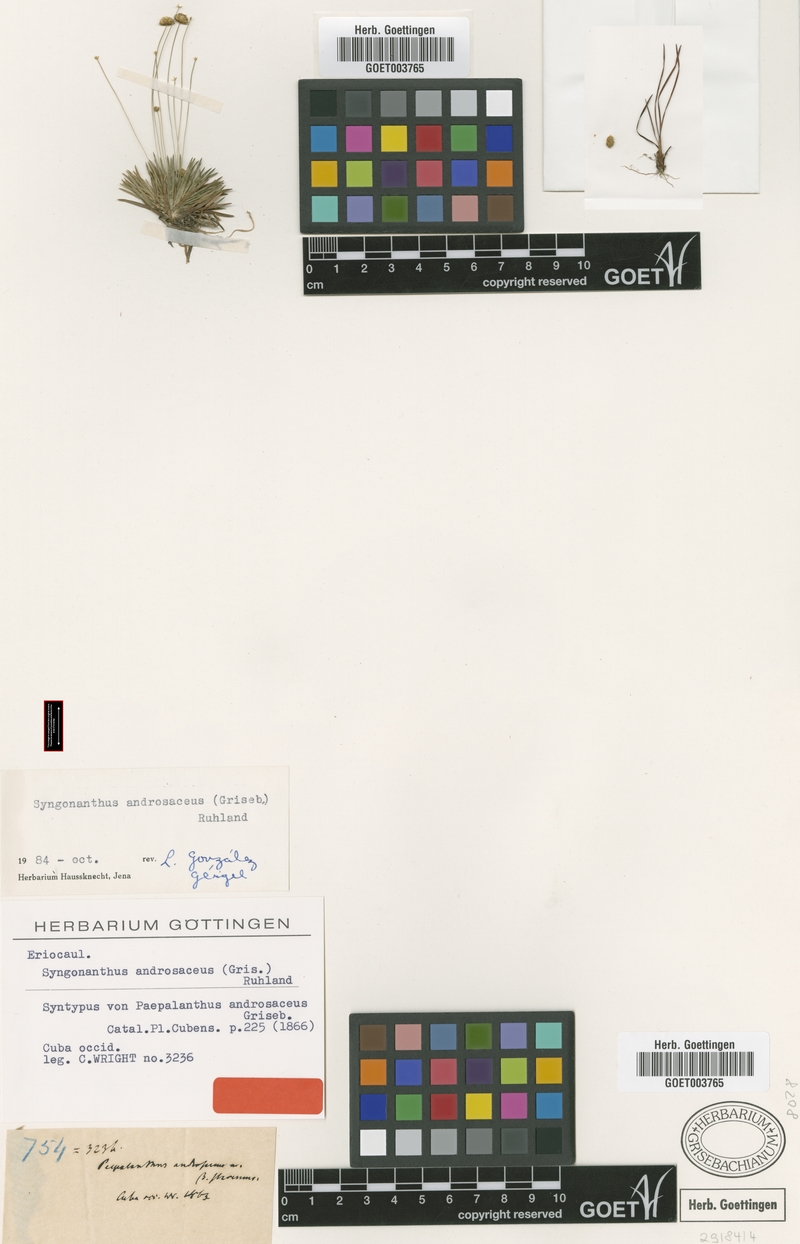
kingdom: Plantae
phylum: Tracheophyta
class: Liliopsida
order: Poales
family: Eriocaulaceae
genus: Syngonanthus
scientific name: Syngonanthus androsaceus
